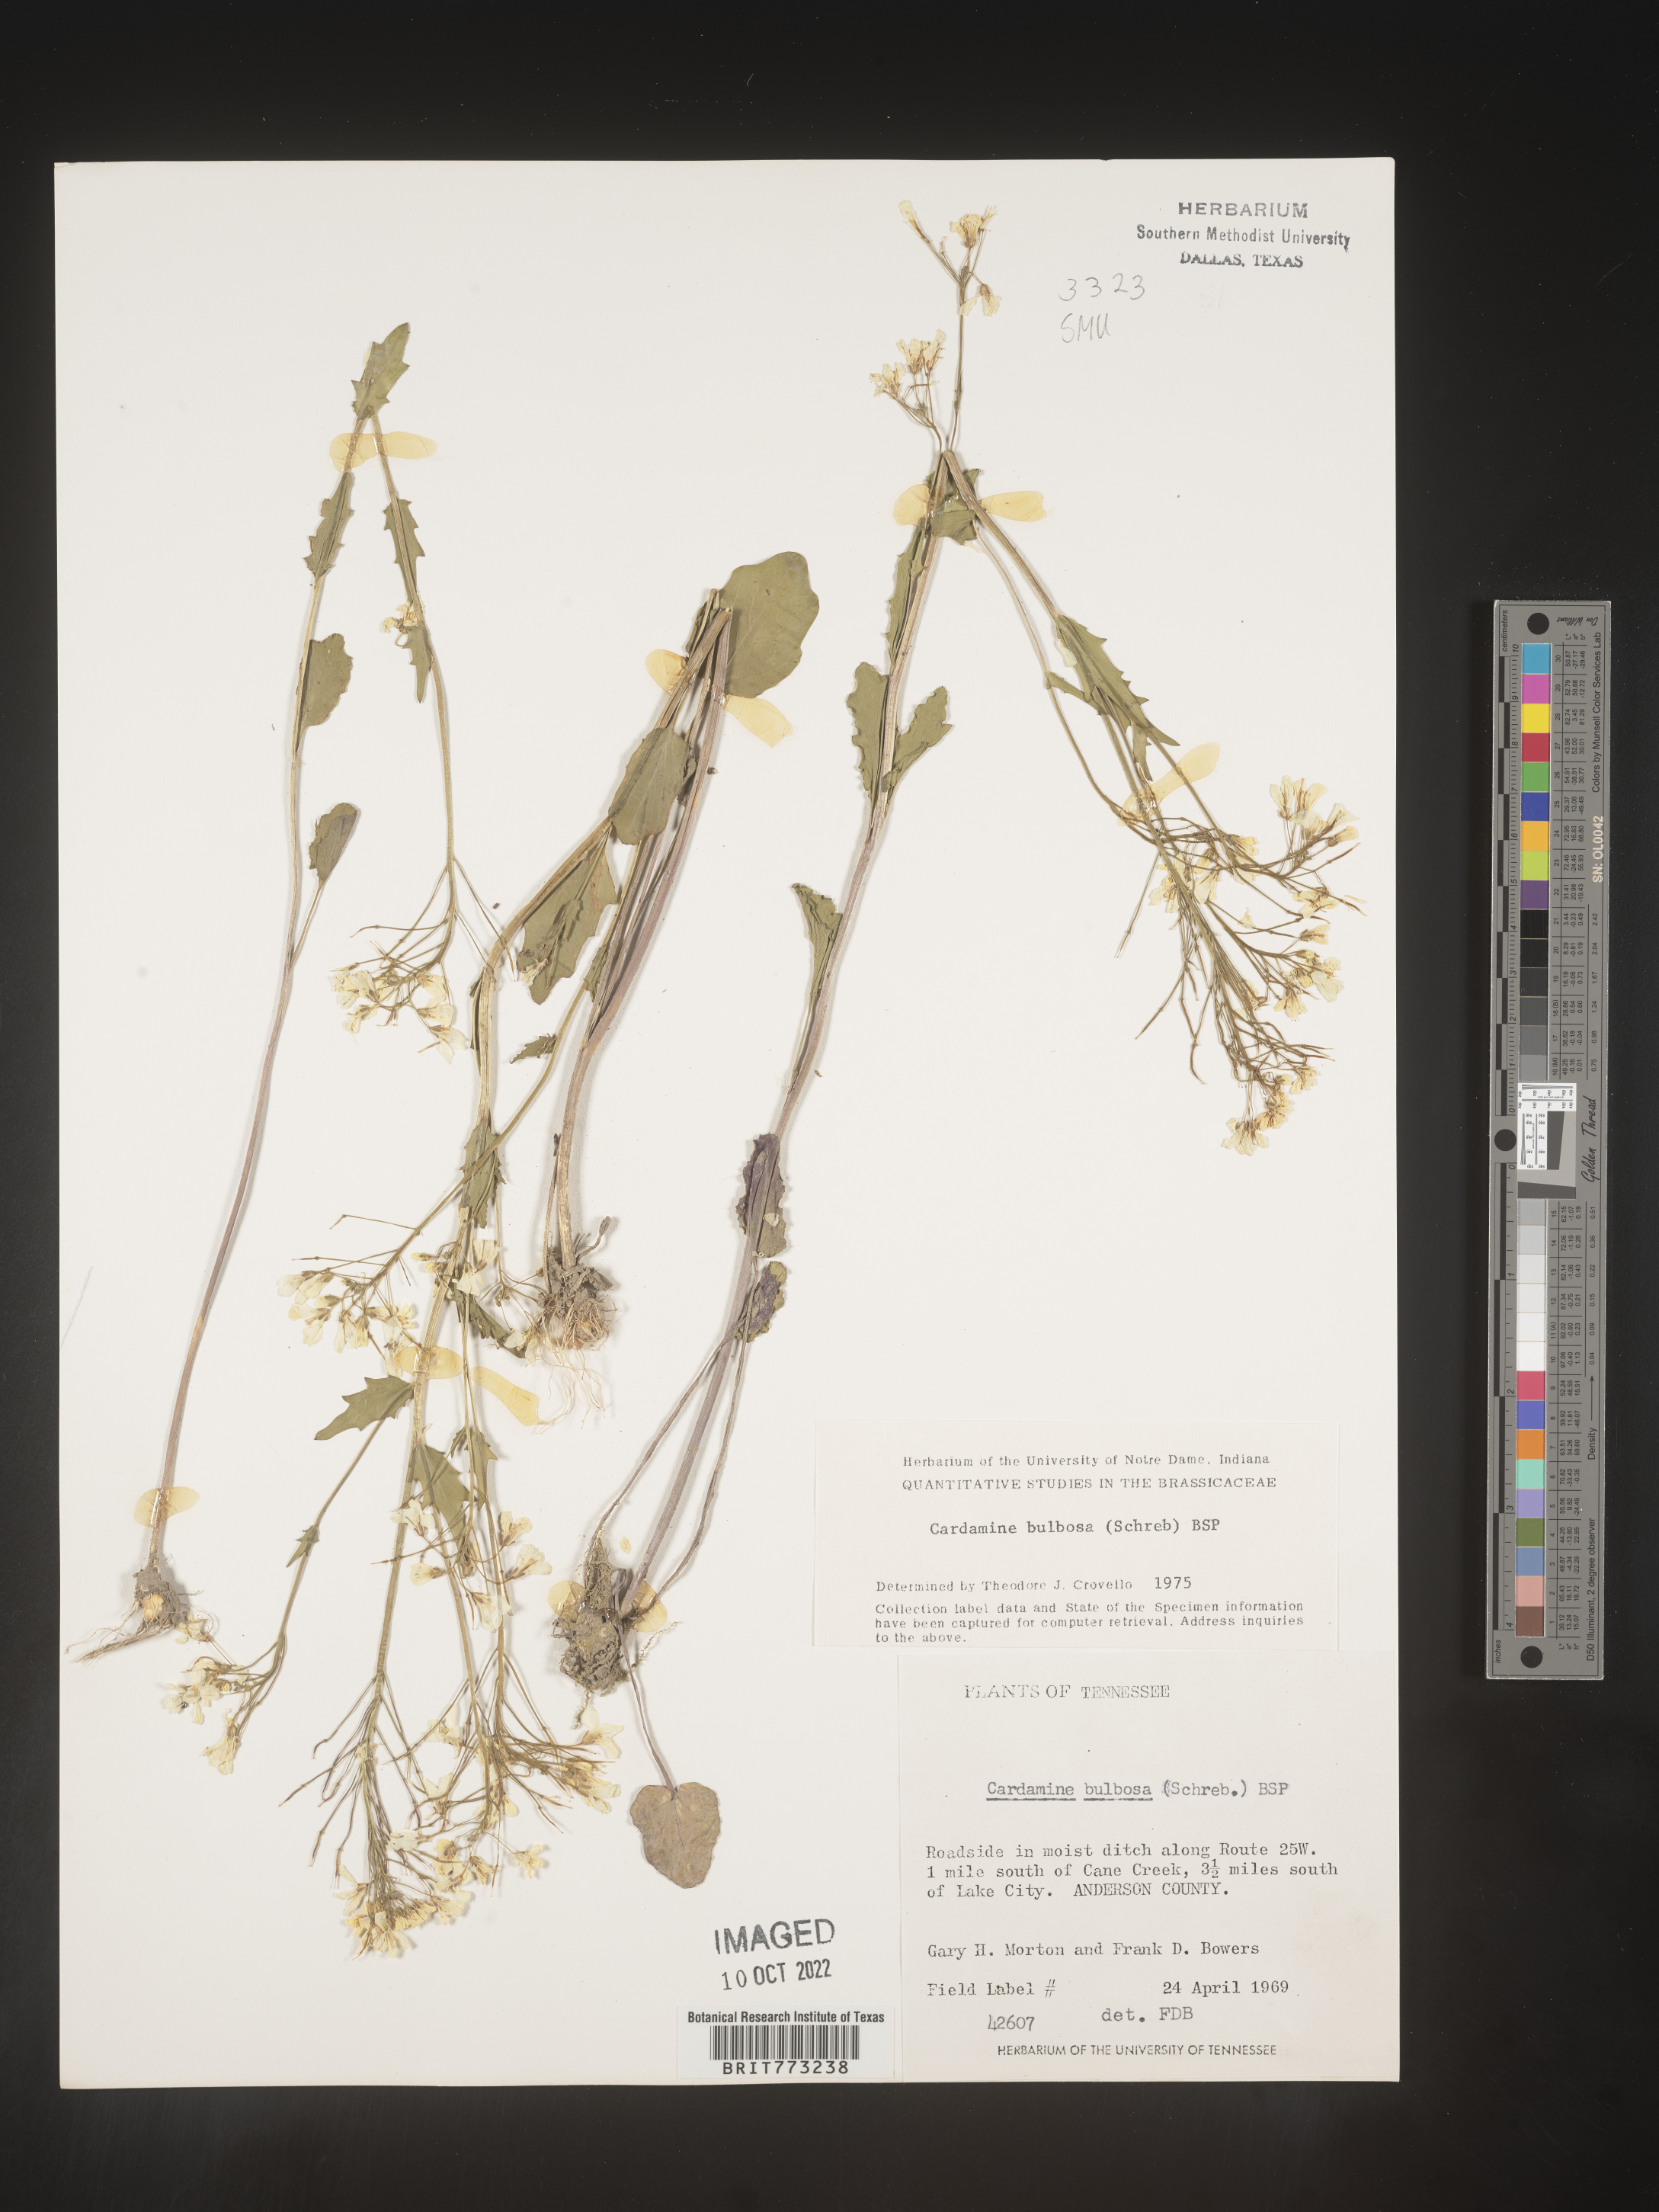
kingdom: Plantae
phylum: Tracheophyta
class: Magnoliopsida
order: Brassicales
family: Brassicaceae
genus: Cardamine
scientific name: Cardamine bulbosa
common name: Spring cress
